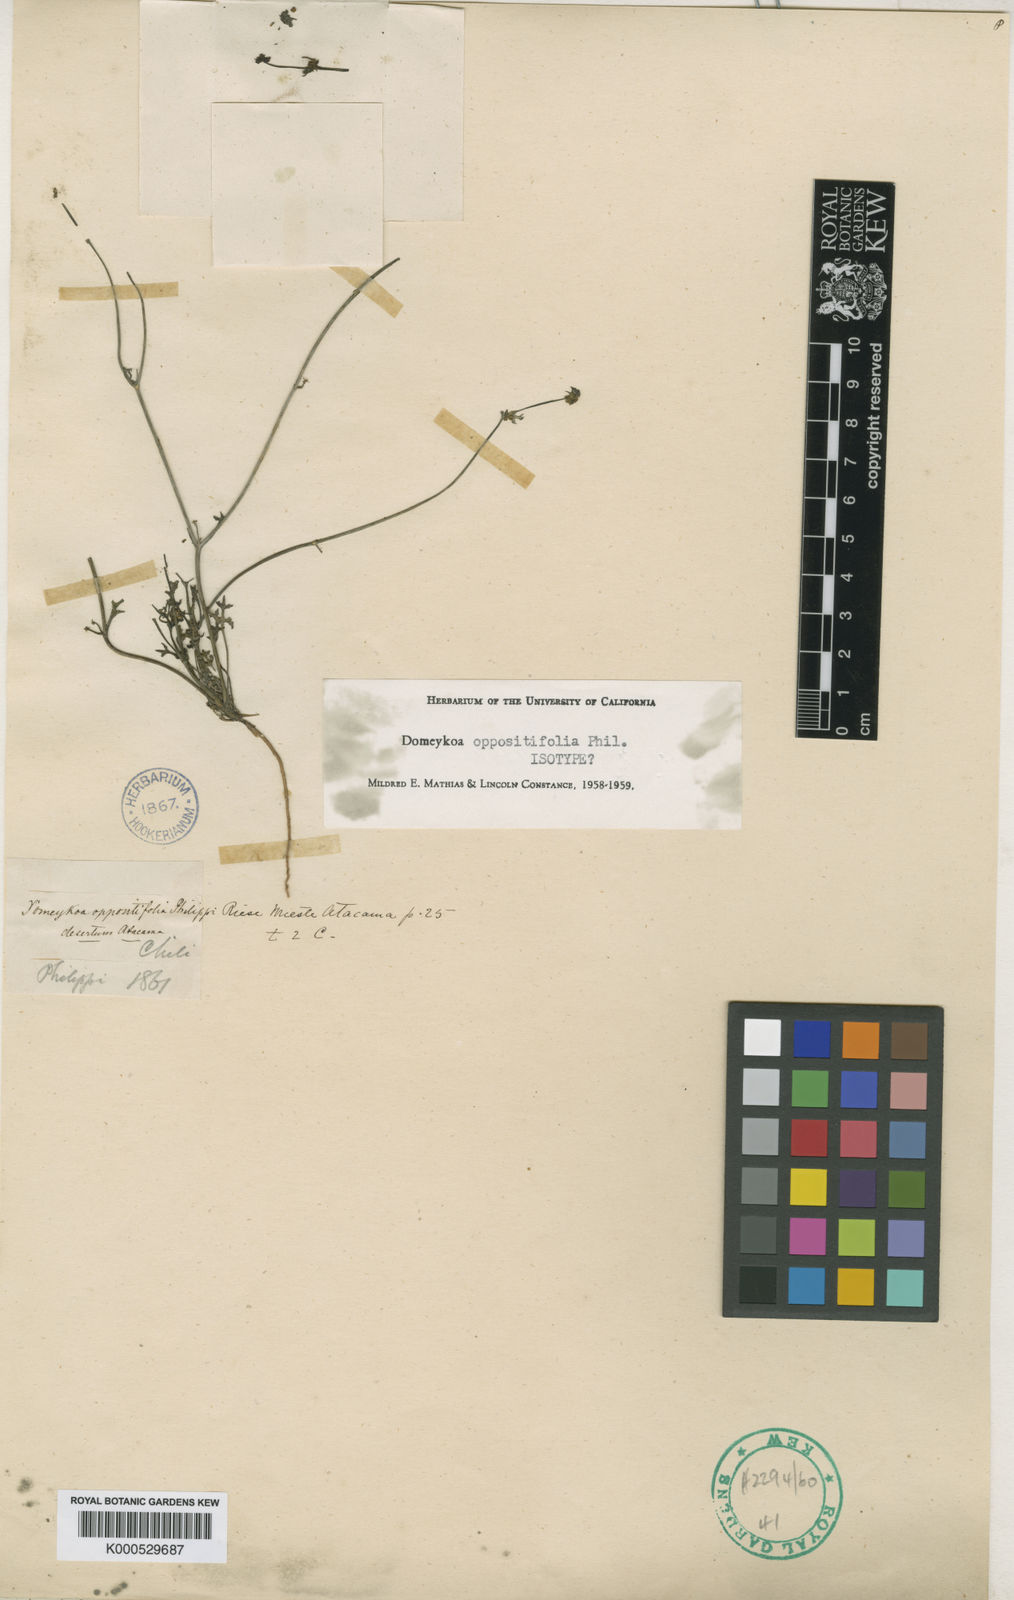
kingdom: Plantae
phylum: Tracheophyta
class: Magnoliopsida
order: Apiales
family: Apiaceae
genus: Domeykoa
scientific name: Domeykoa oppositifolia
